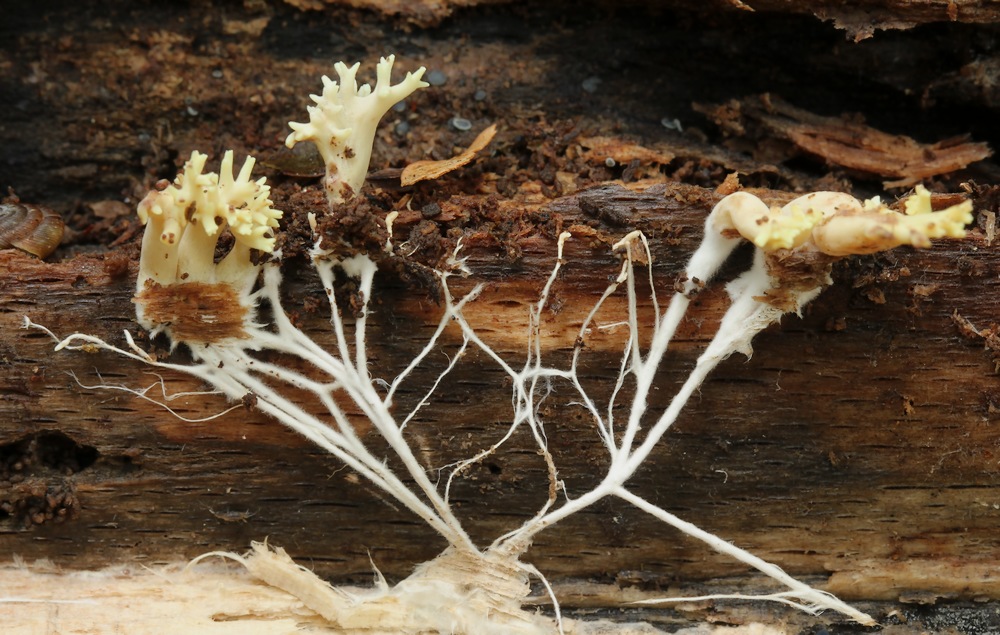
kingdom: Fungi
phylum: Basidiomycota
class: Agaricomycetes
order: Gomphales
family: Gomphaceae
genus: Ramaria
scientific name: Ramaria stricta
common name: rank koralsvamp
